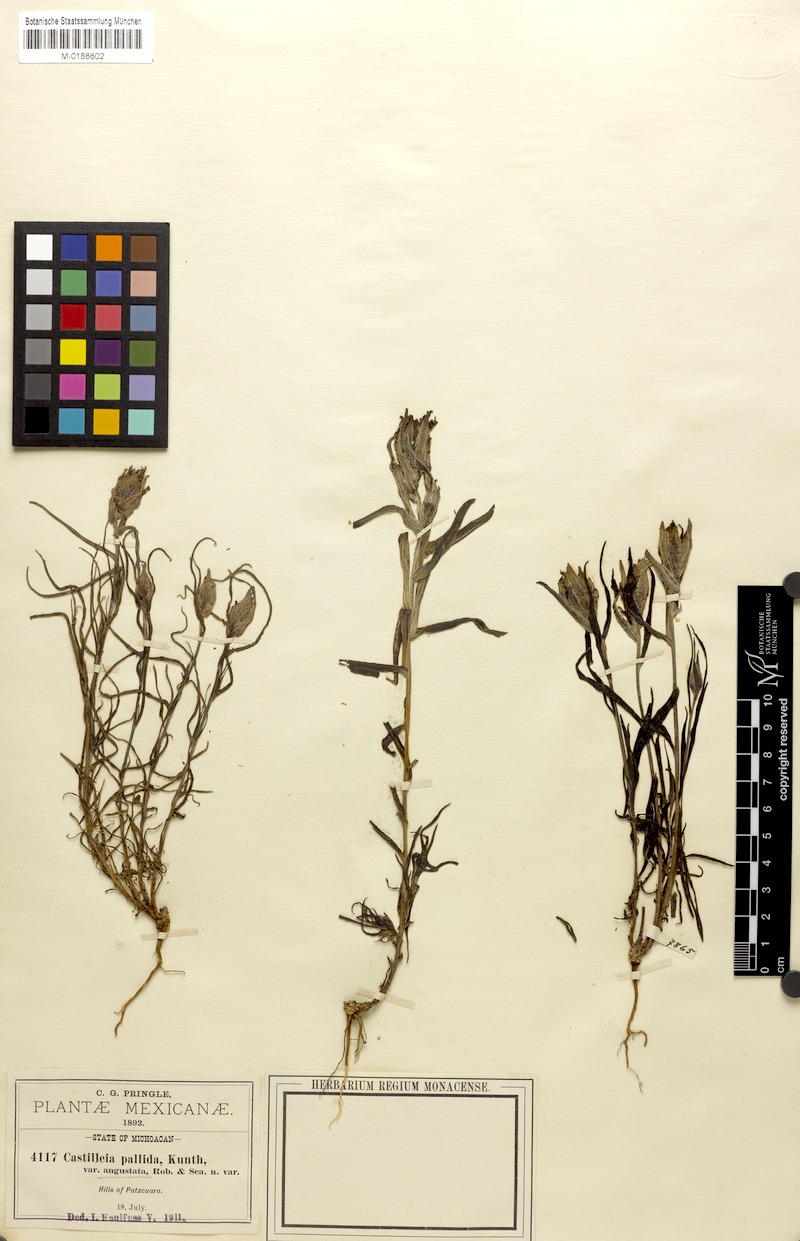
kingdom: Plantae
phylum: Tracheophyta
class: Magnoliopsida
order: Lamiales
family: Orobanchaceae
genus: Castilleja
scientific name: Castilleja angustata
